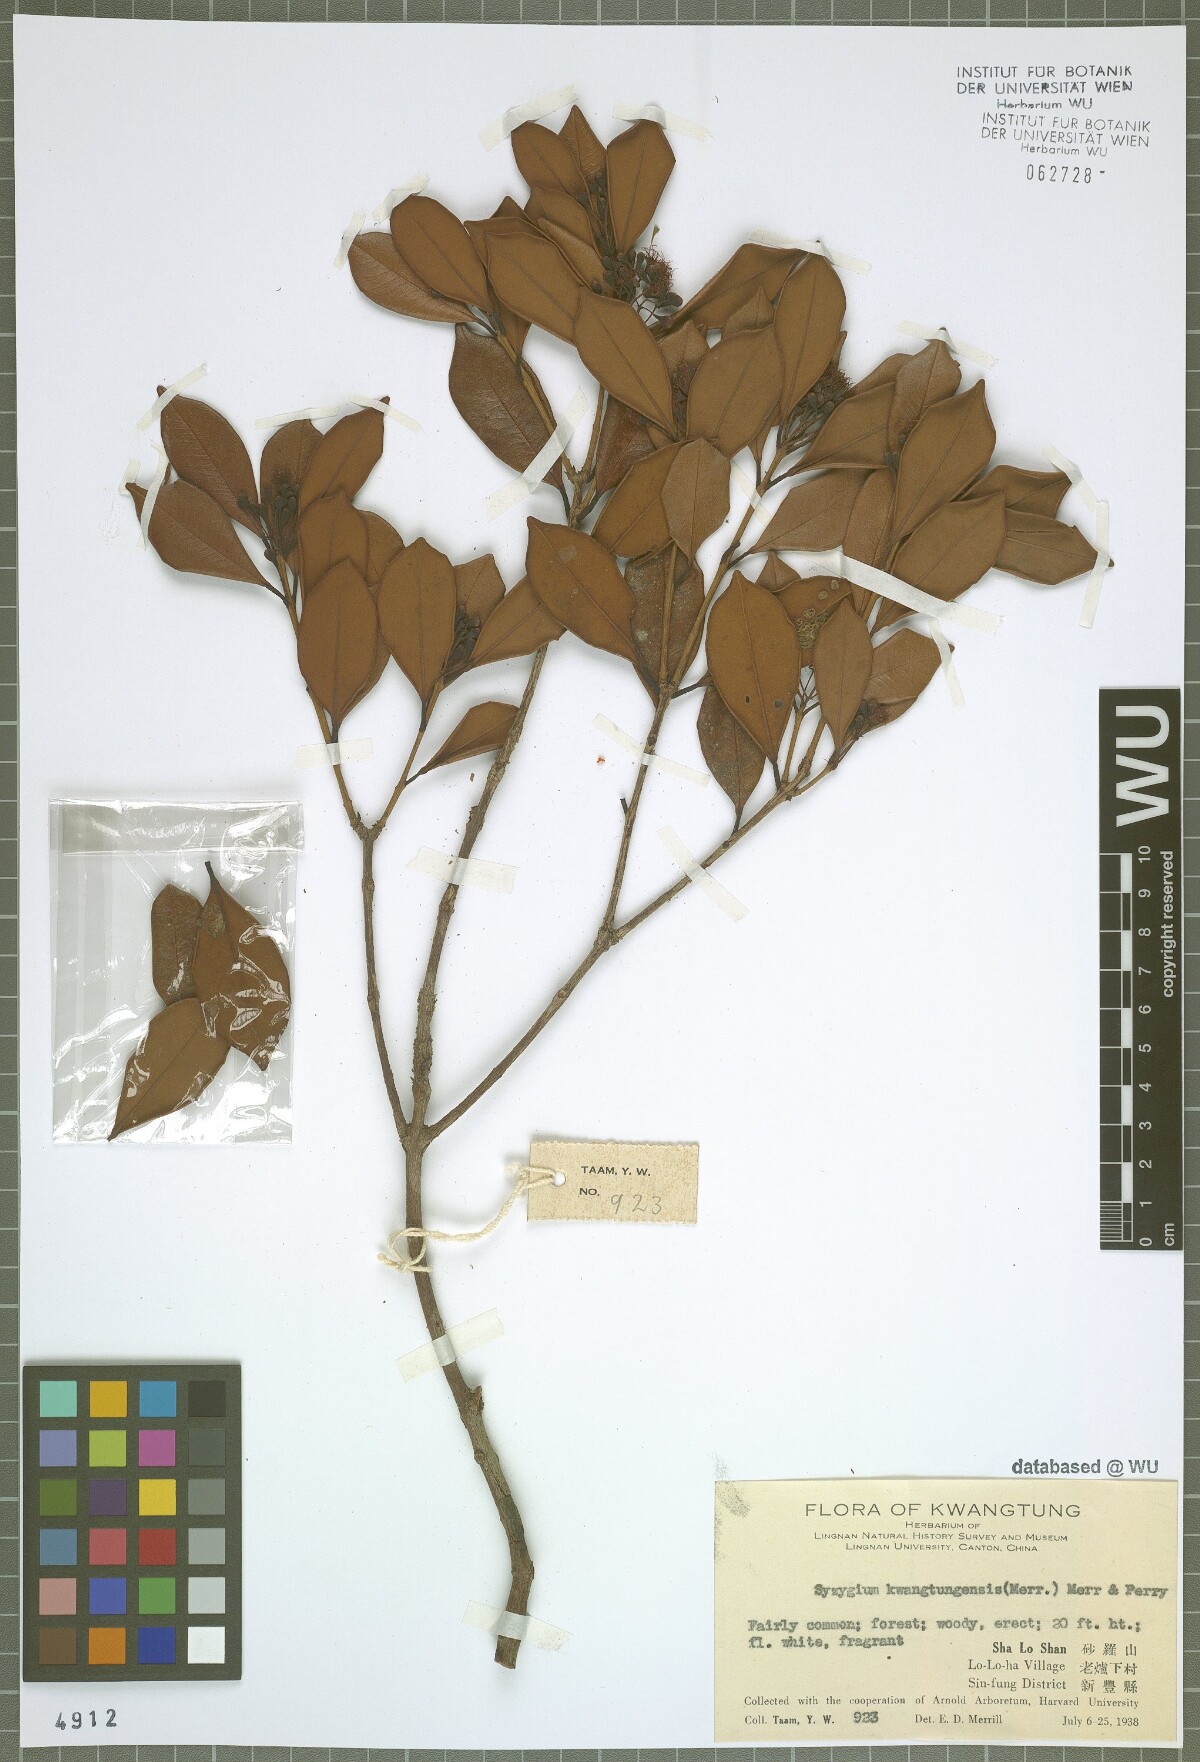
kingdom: Plantae
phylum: Tracheophyta
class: Magnoliopsida
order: Myrtales
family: Myrtaceae
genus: Syzygium
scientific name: Syzygium kwangtungense
